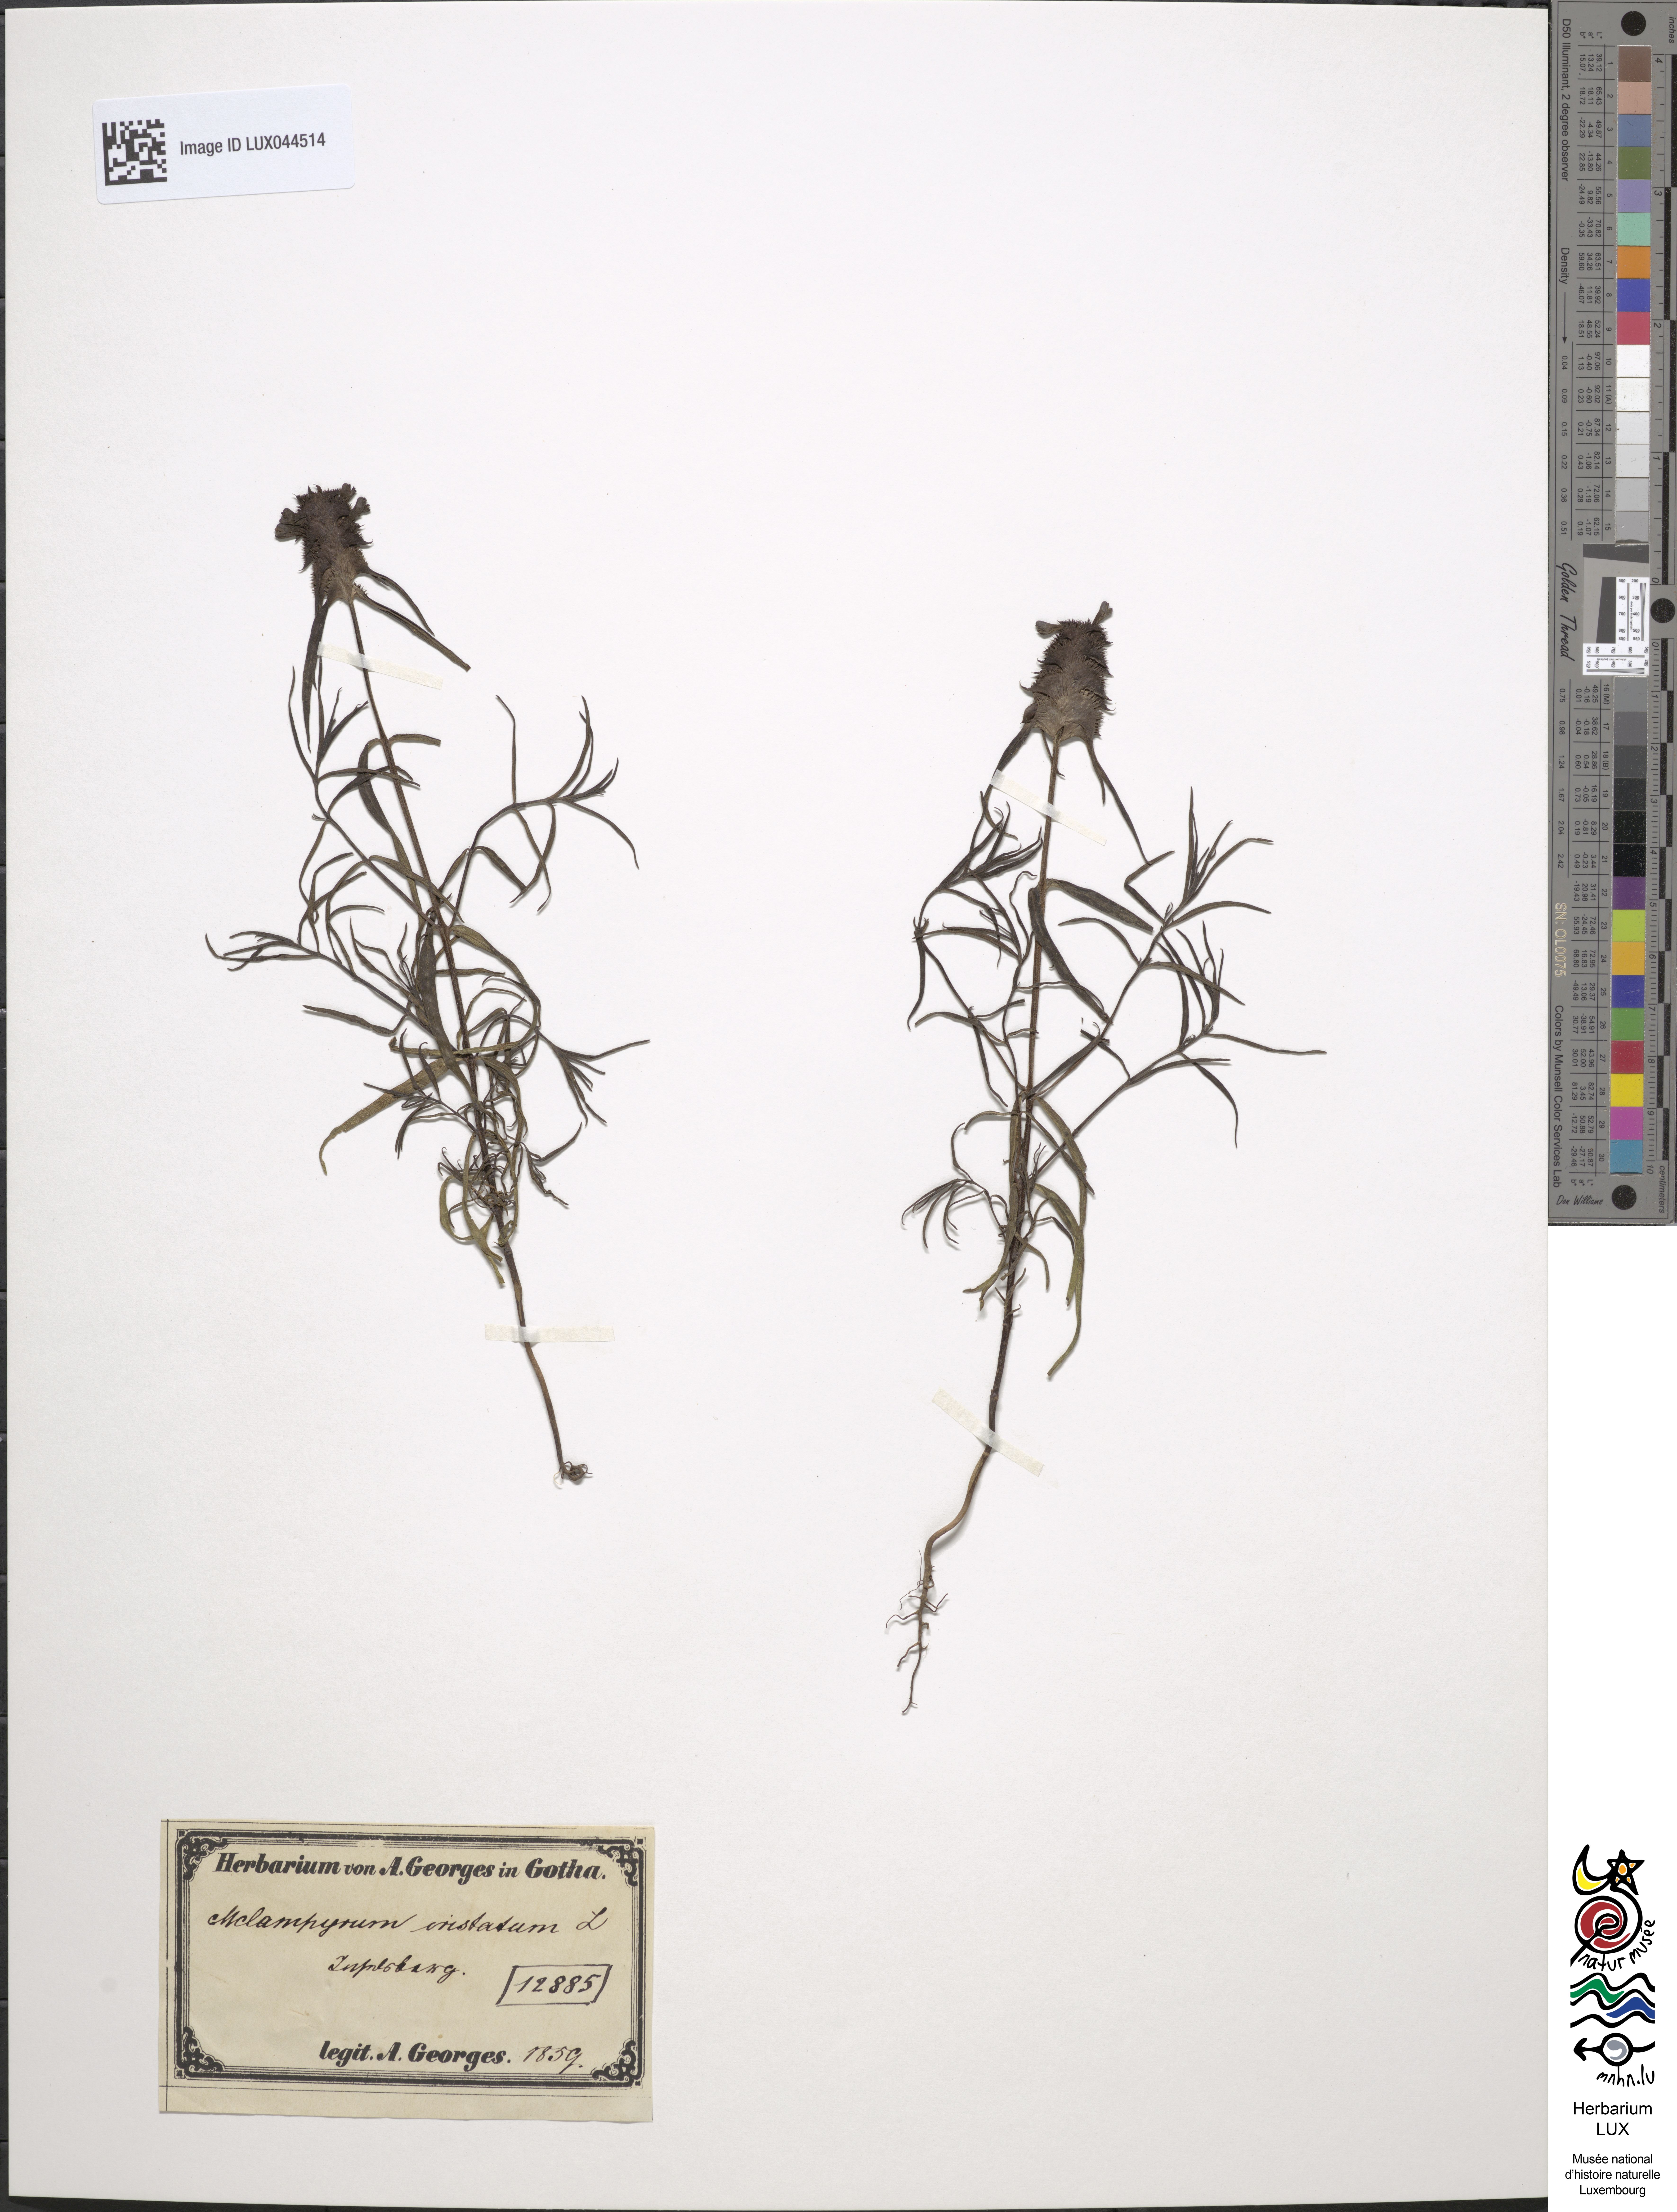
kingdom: Plantae
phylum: Tracheophyta
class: Magnoliopsida
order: Lamiales
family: Orobanchaceae
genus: Melampyrum
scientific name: Melampyrum cristatum
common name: Crested cow-wheat
